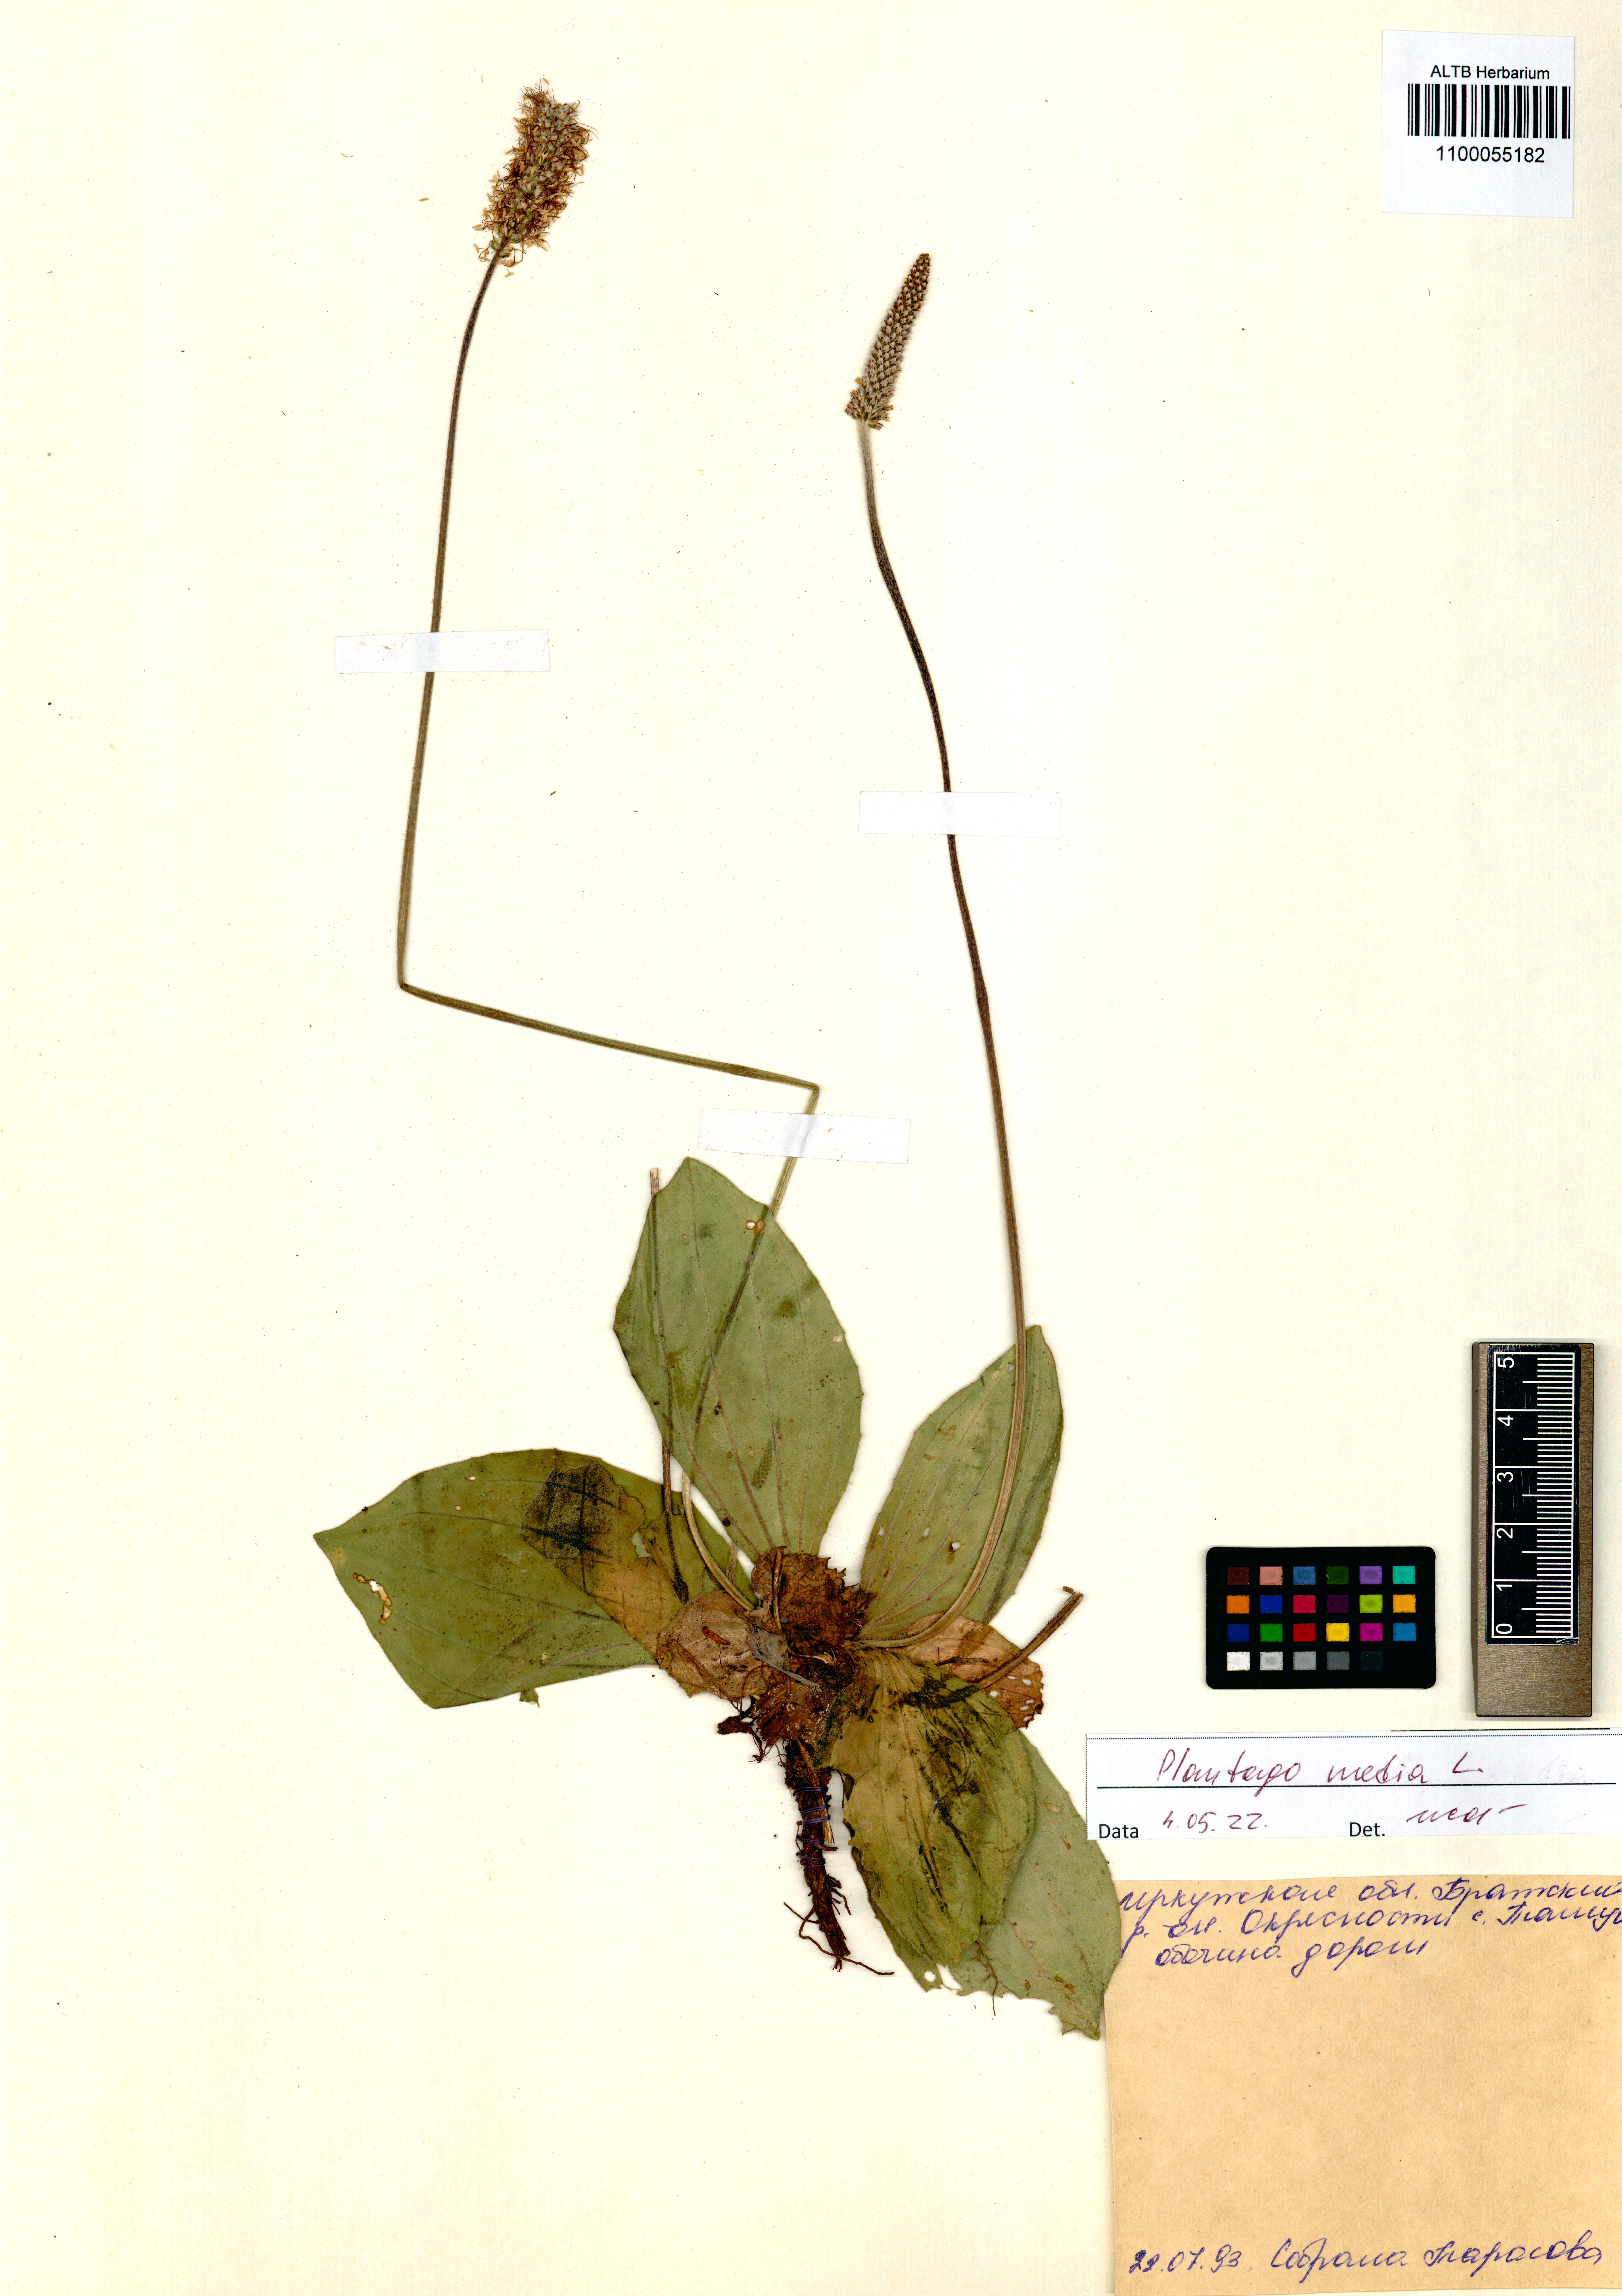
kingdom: Plantae
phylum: Tracheophyta
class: Magnoliopsida
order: Lamiales
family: Plantaginaceae
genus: Plantago
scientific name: Plantago media
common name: Hoary plantain
